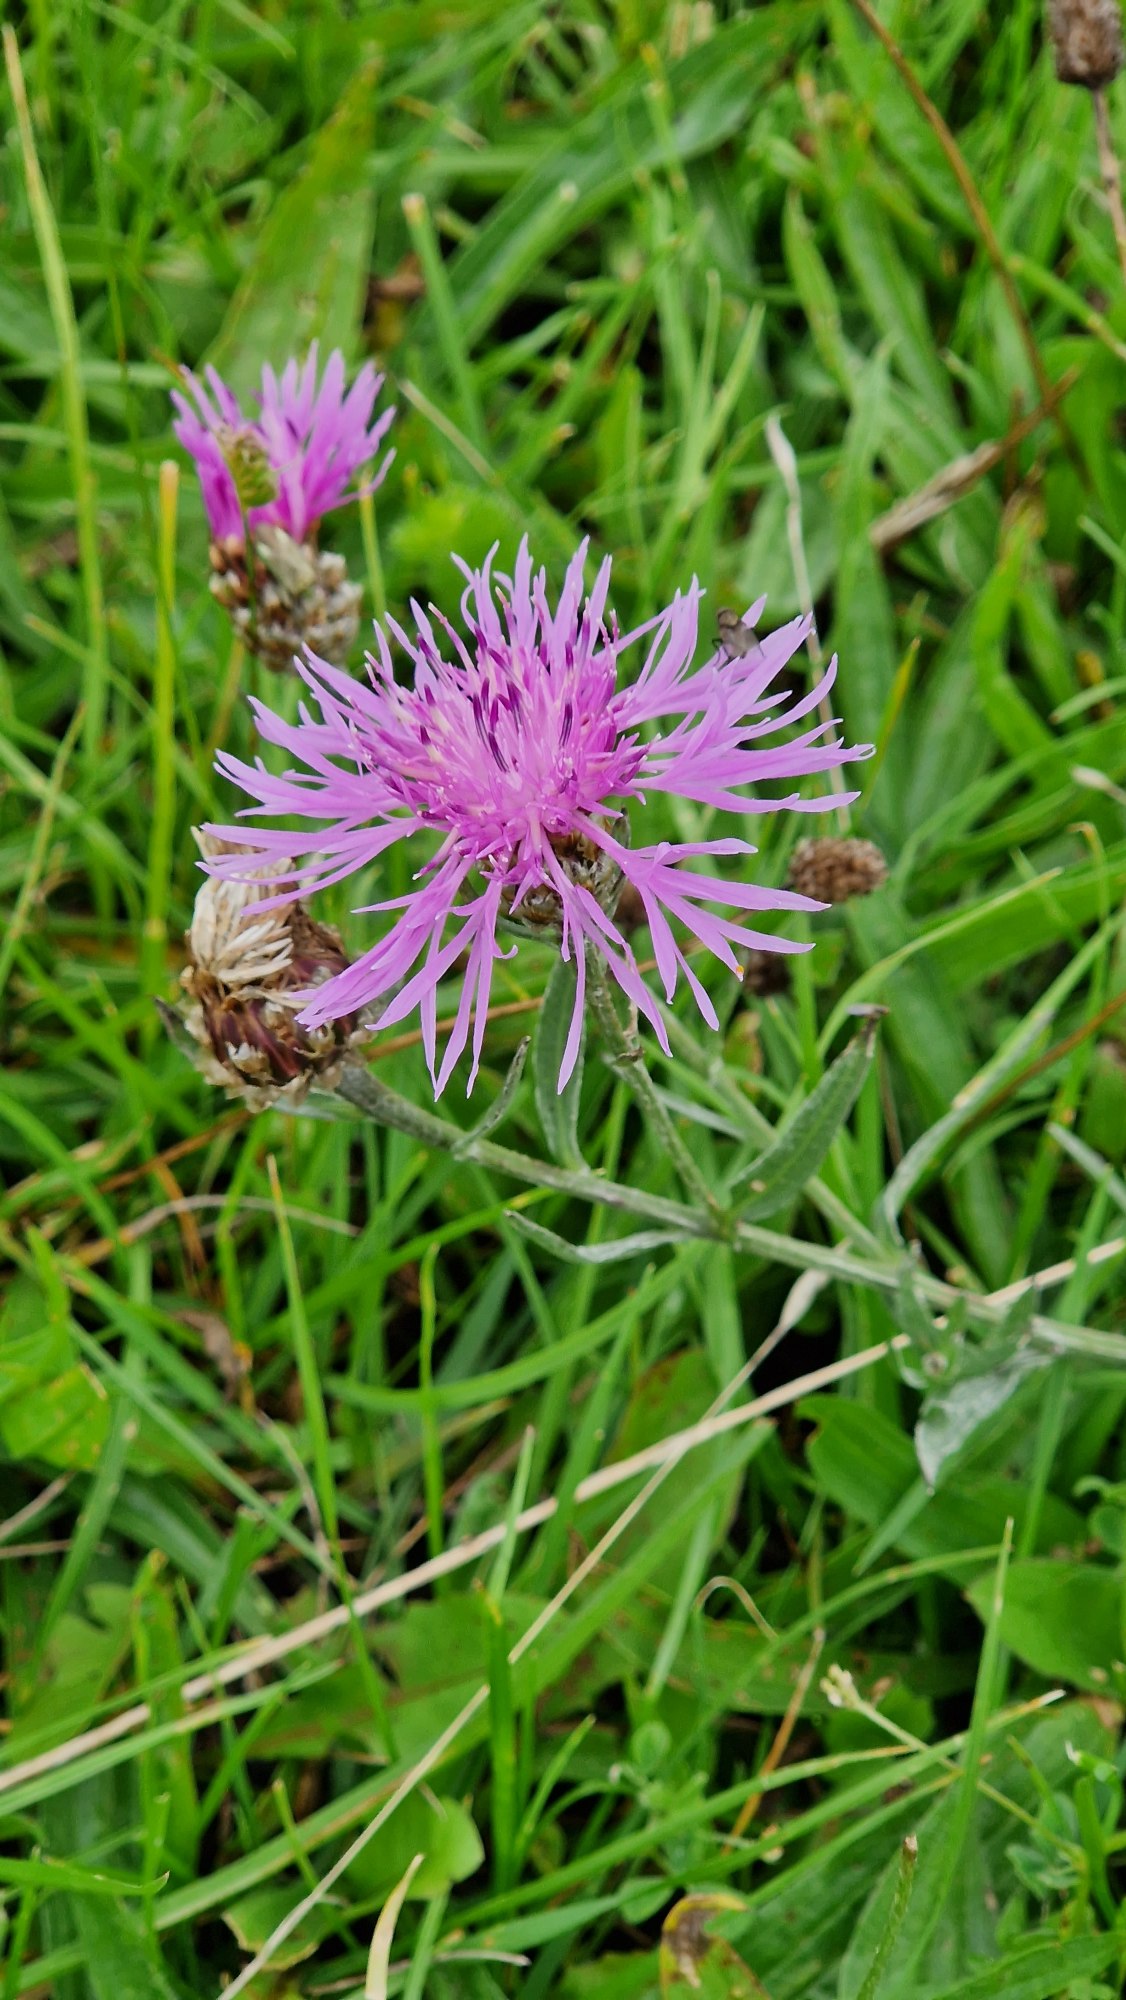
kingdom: Plantae
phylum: Tracheophyta
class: Magnoliopsida
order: Asterales
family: Asteraceae
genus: Centaurea
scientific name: Centaurea jacea
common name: Almindelig knopurt
